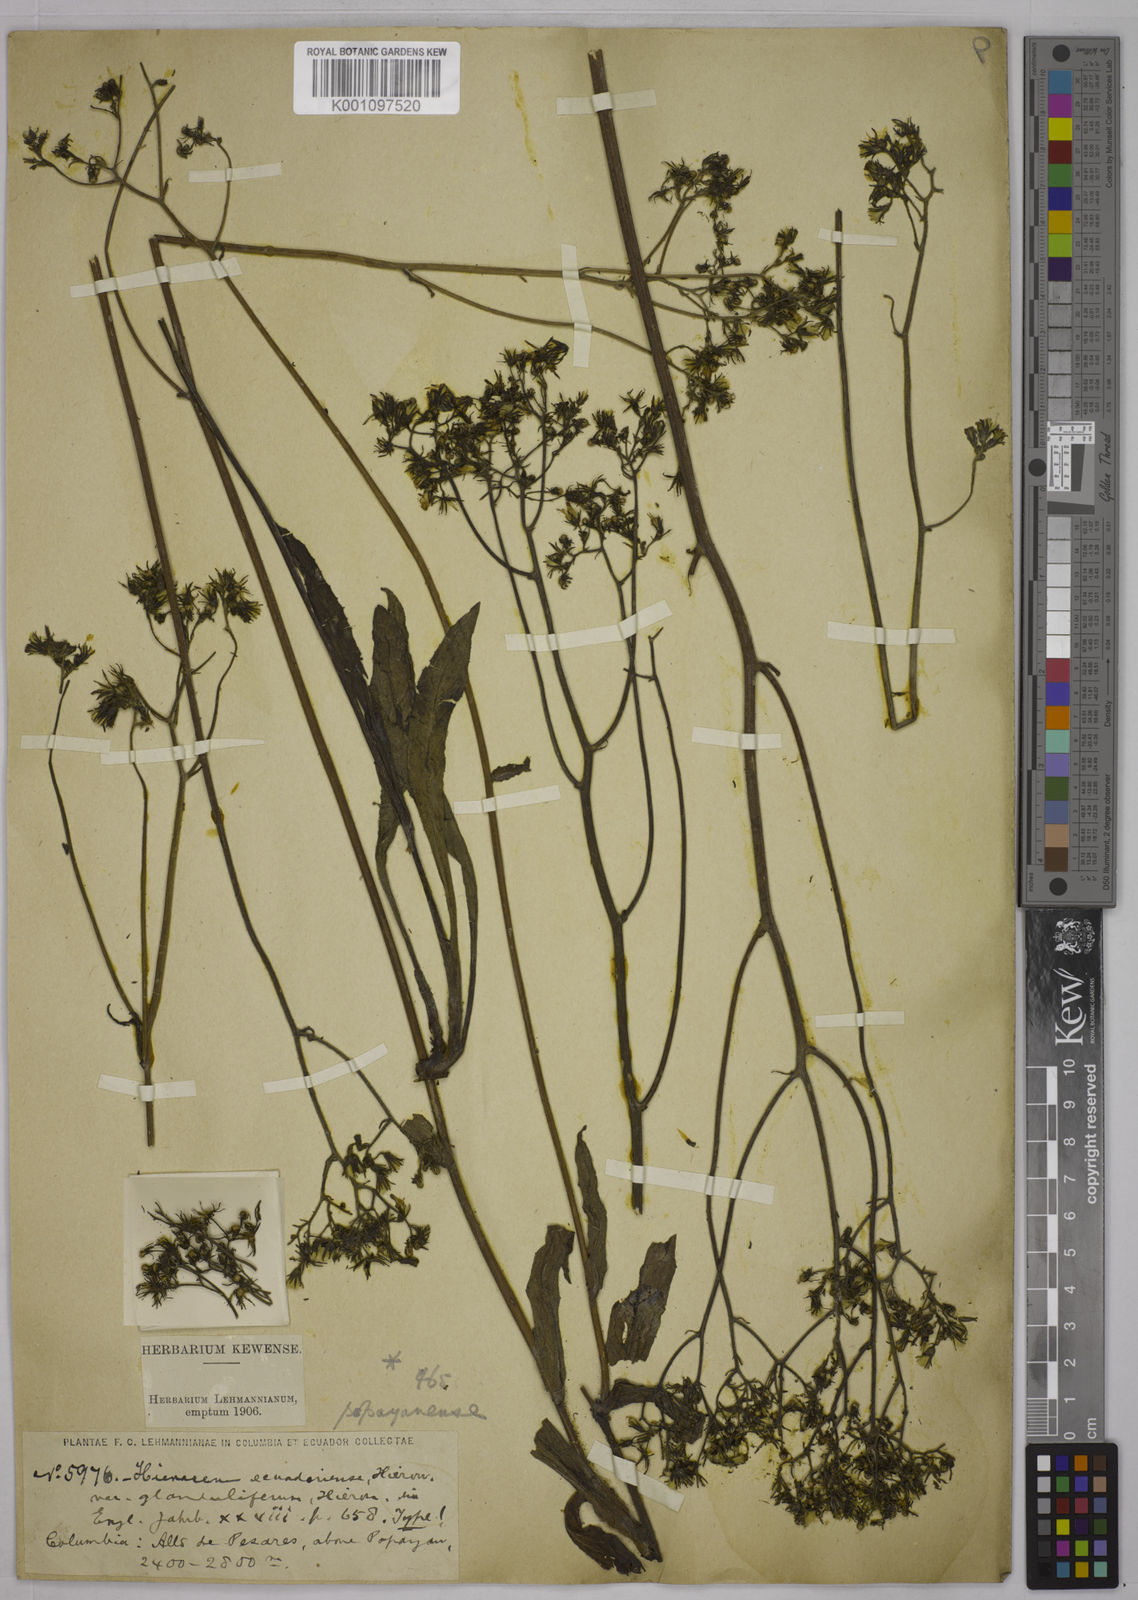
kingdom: Plantae
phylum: Tracheophyta
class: Magnoliopsida
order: Asterales
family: Asteraceae
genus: Hieracium
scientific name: Hieracium popayanense
